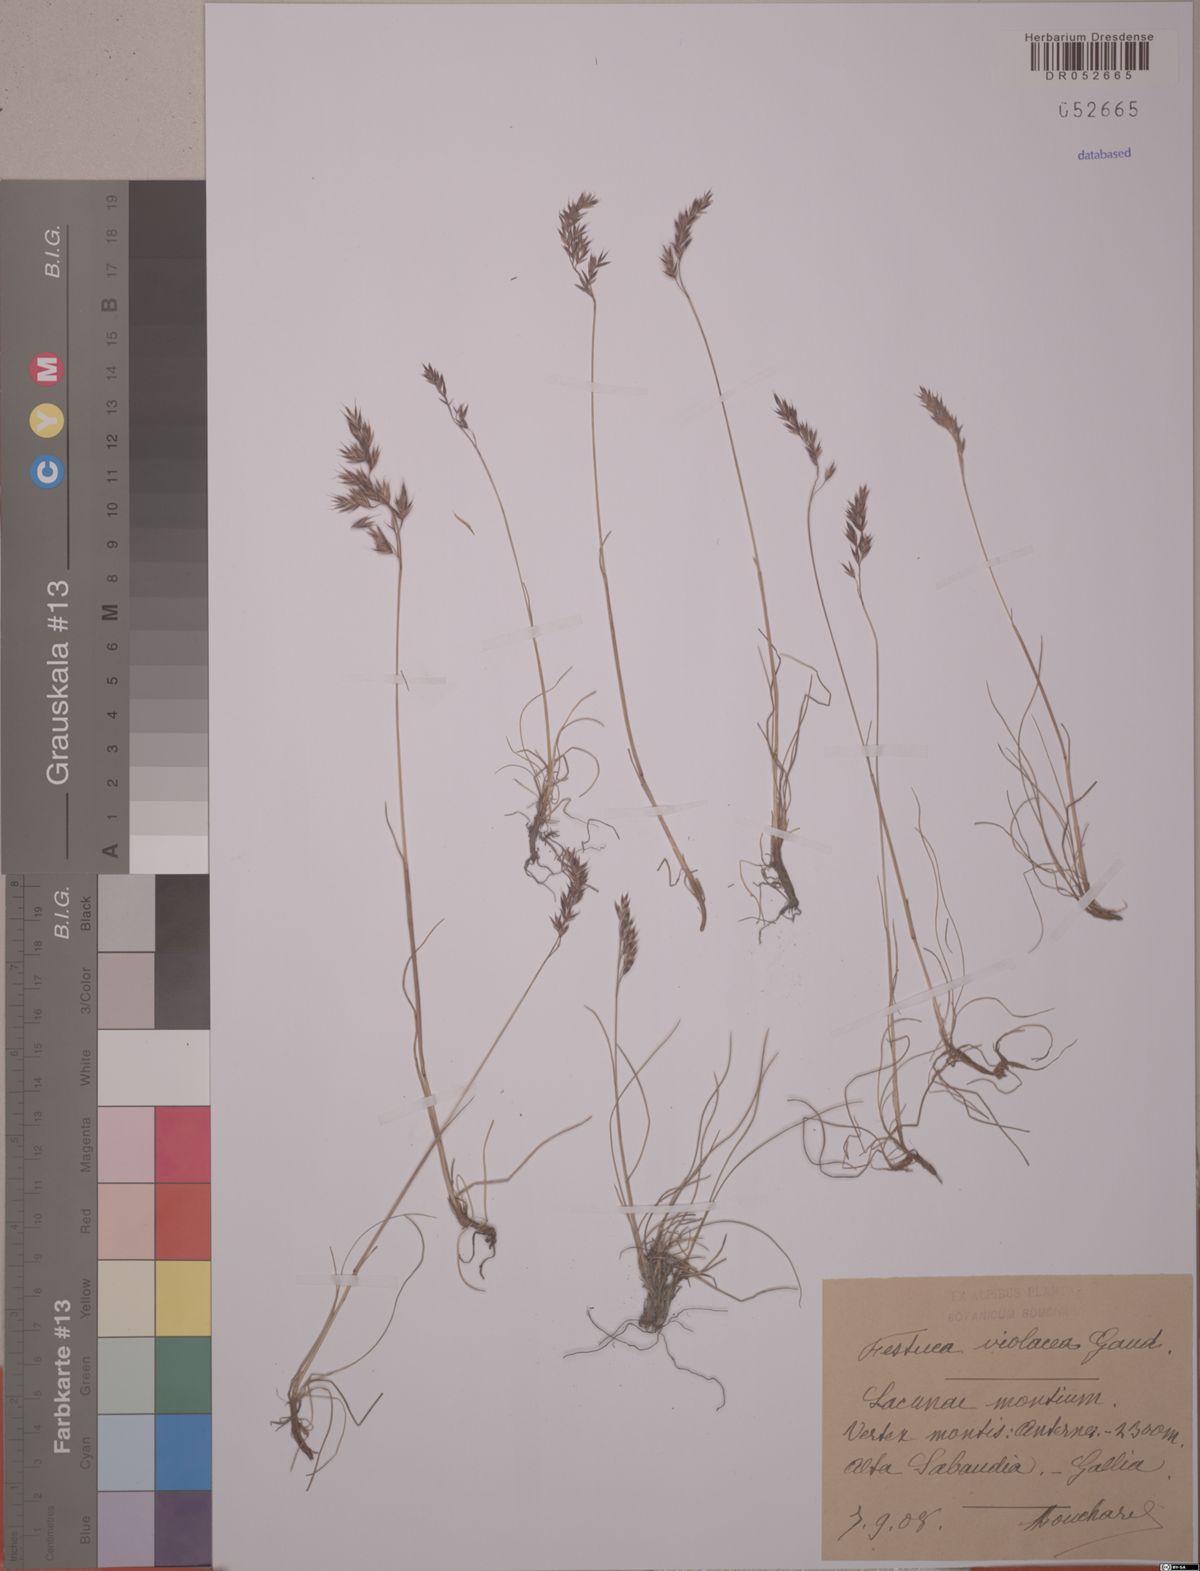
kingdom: Plantae
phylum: Tracheophyta
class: Liliopsida
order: Poales
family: Poaceae
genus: Festuca
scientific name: Festuca violacea
